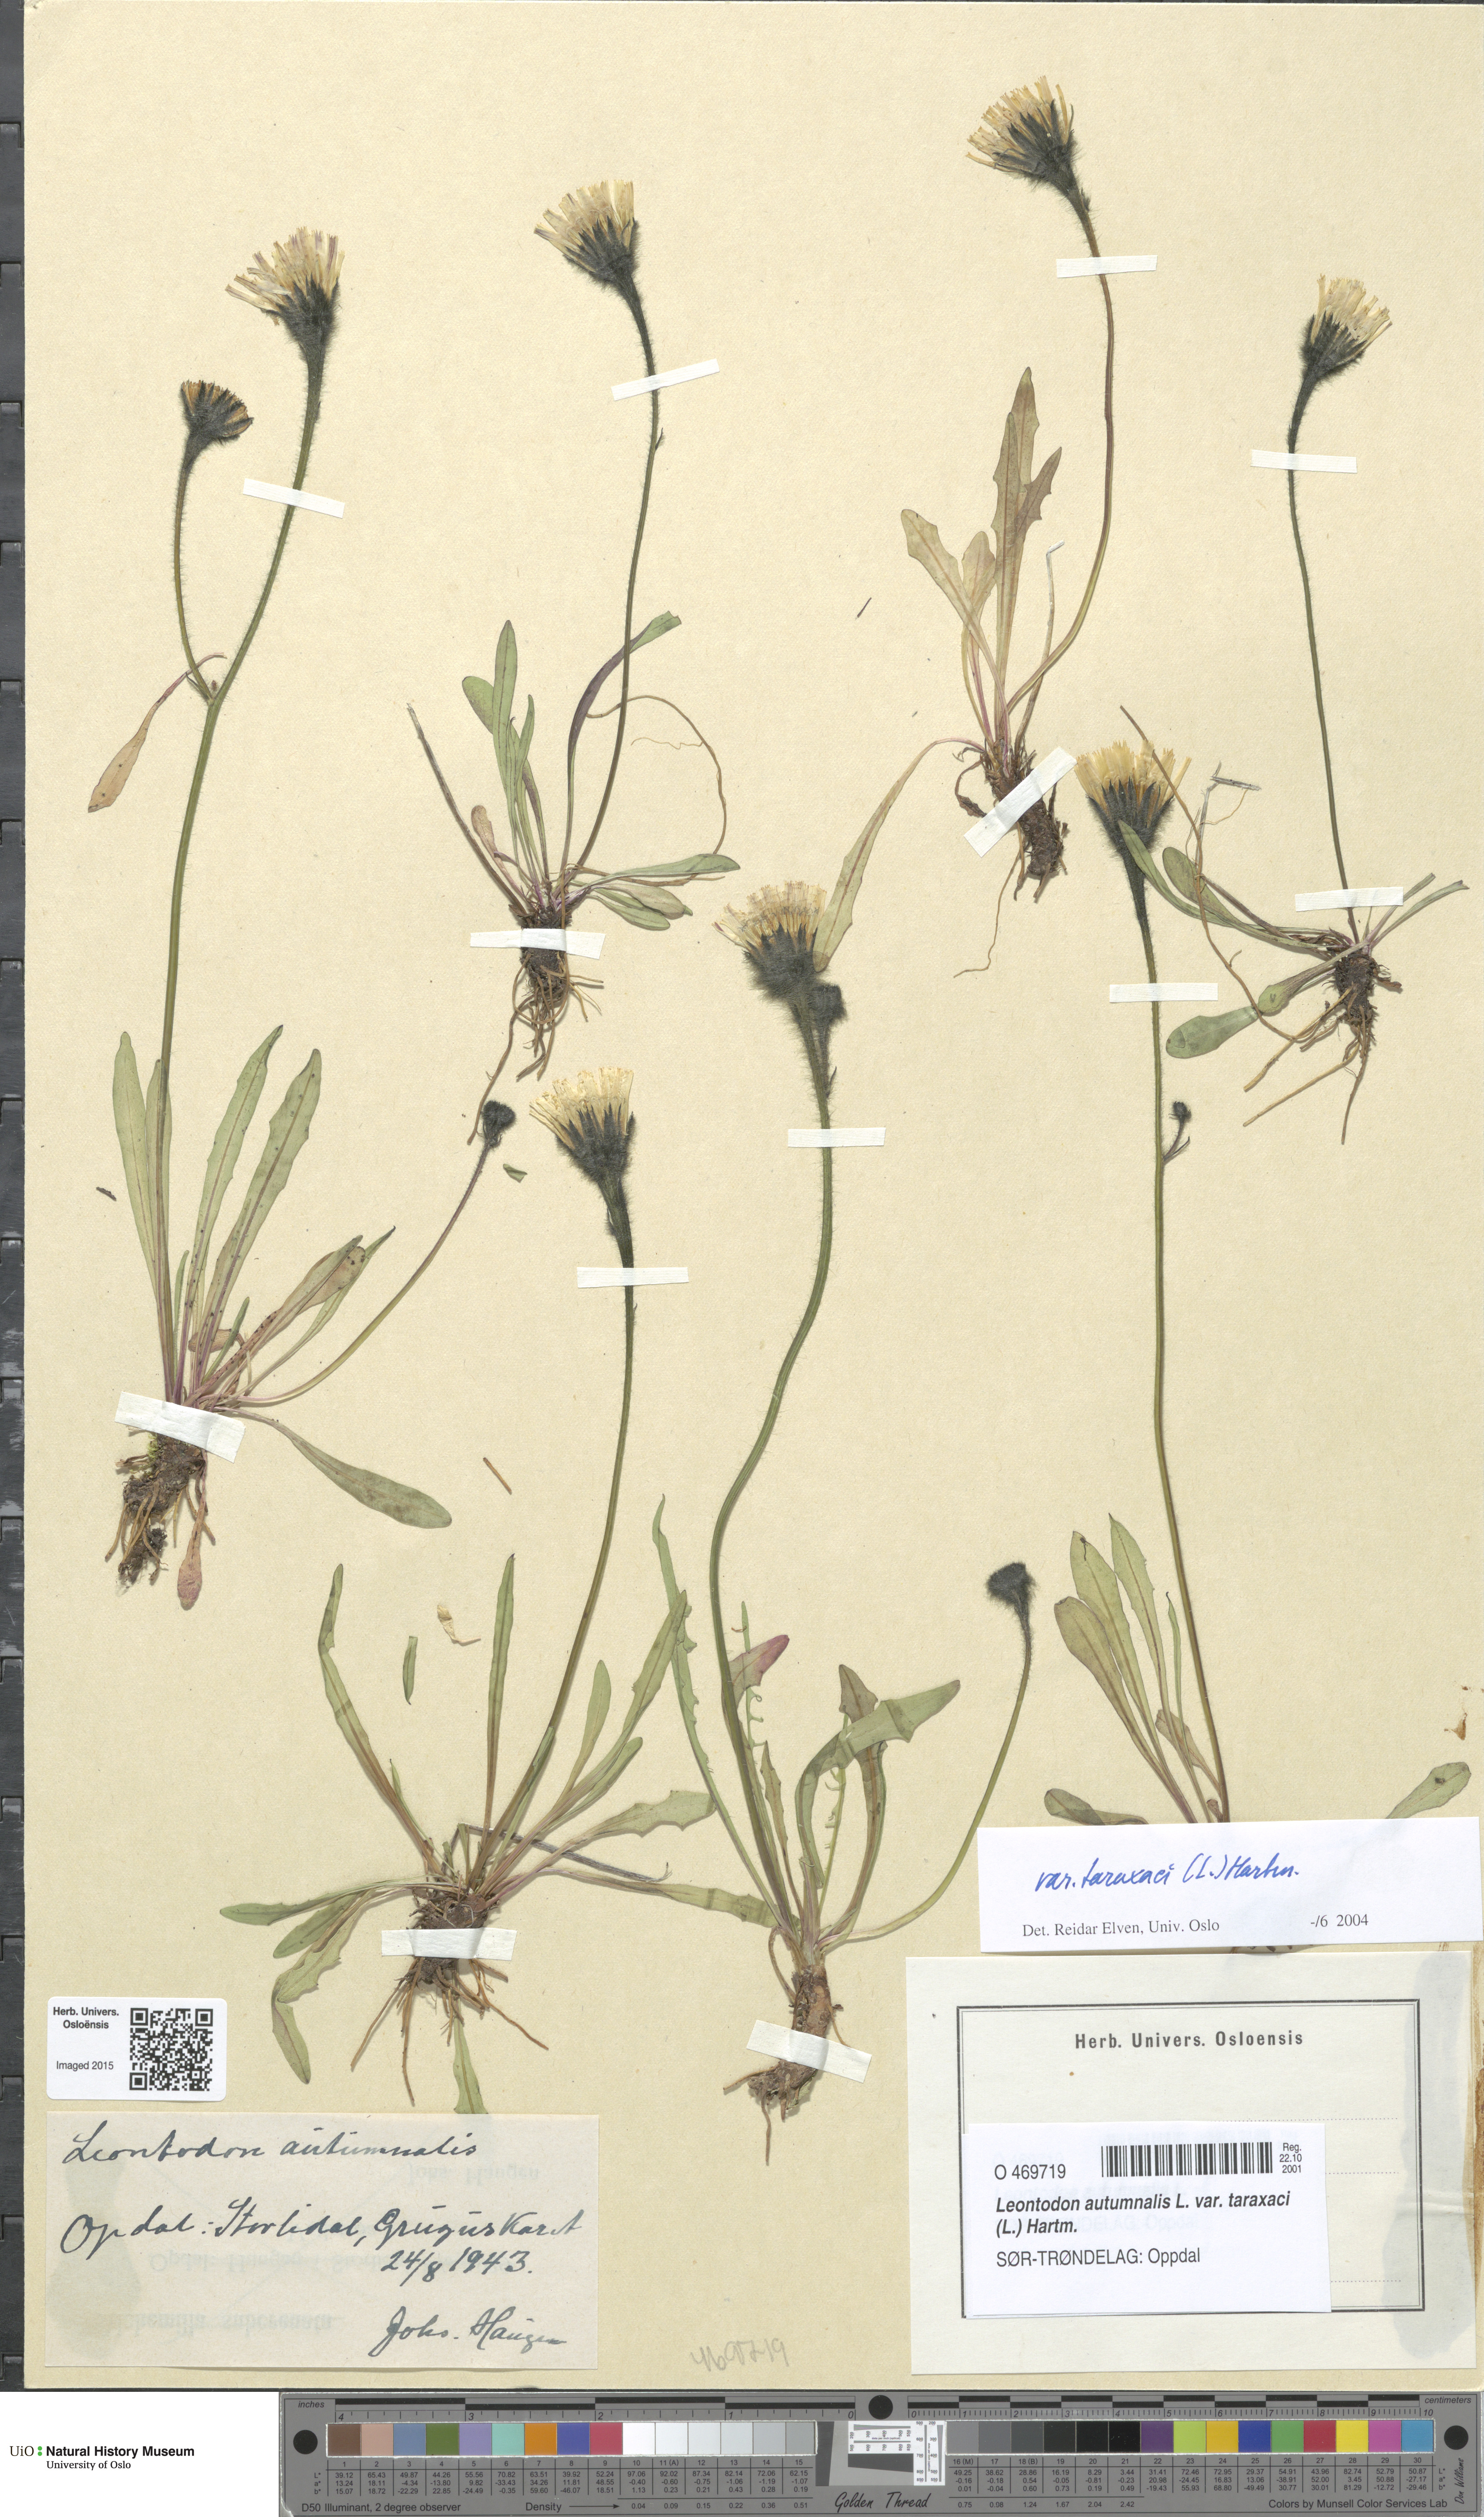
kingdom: Plantae
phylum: Tracheophyta
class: Magnoliopsida
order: Asterales
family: Asteraceae
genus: Scorzoneroides
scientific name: Scorzoneroides autumnalis
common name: Autumn hawkbit
